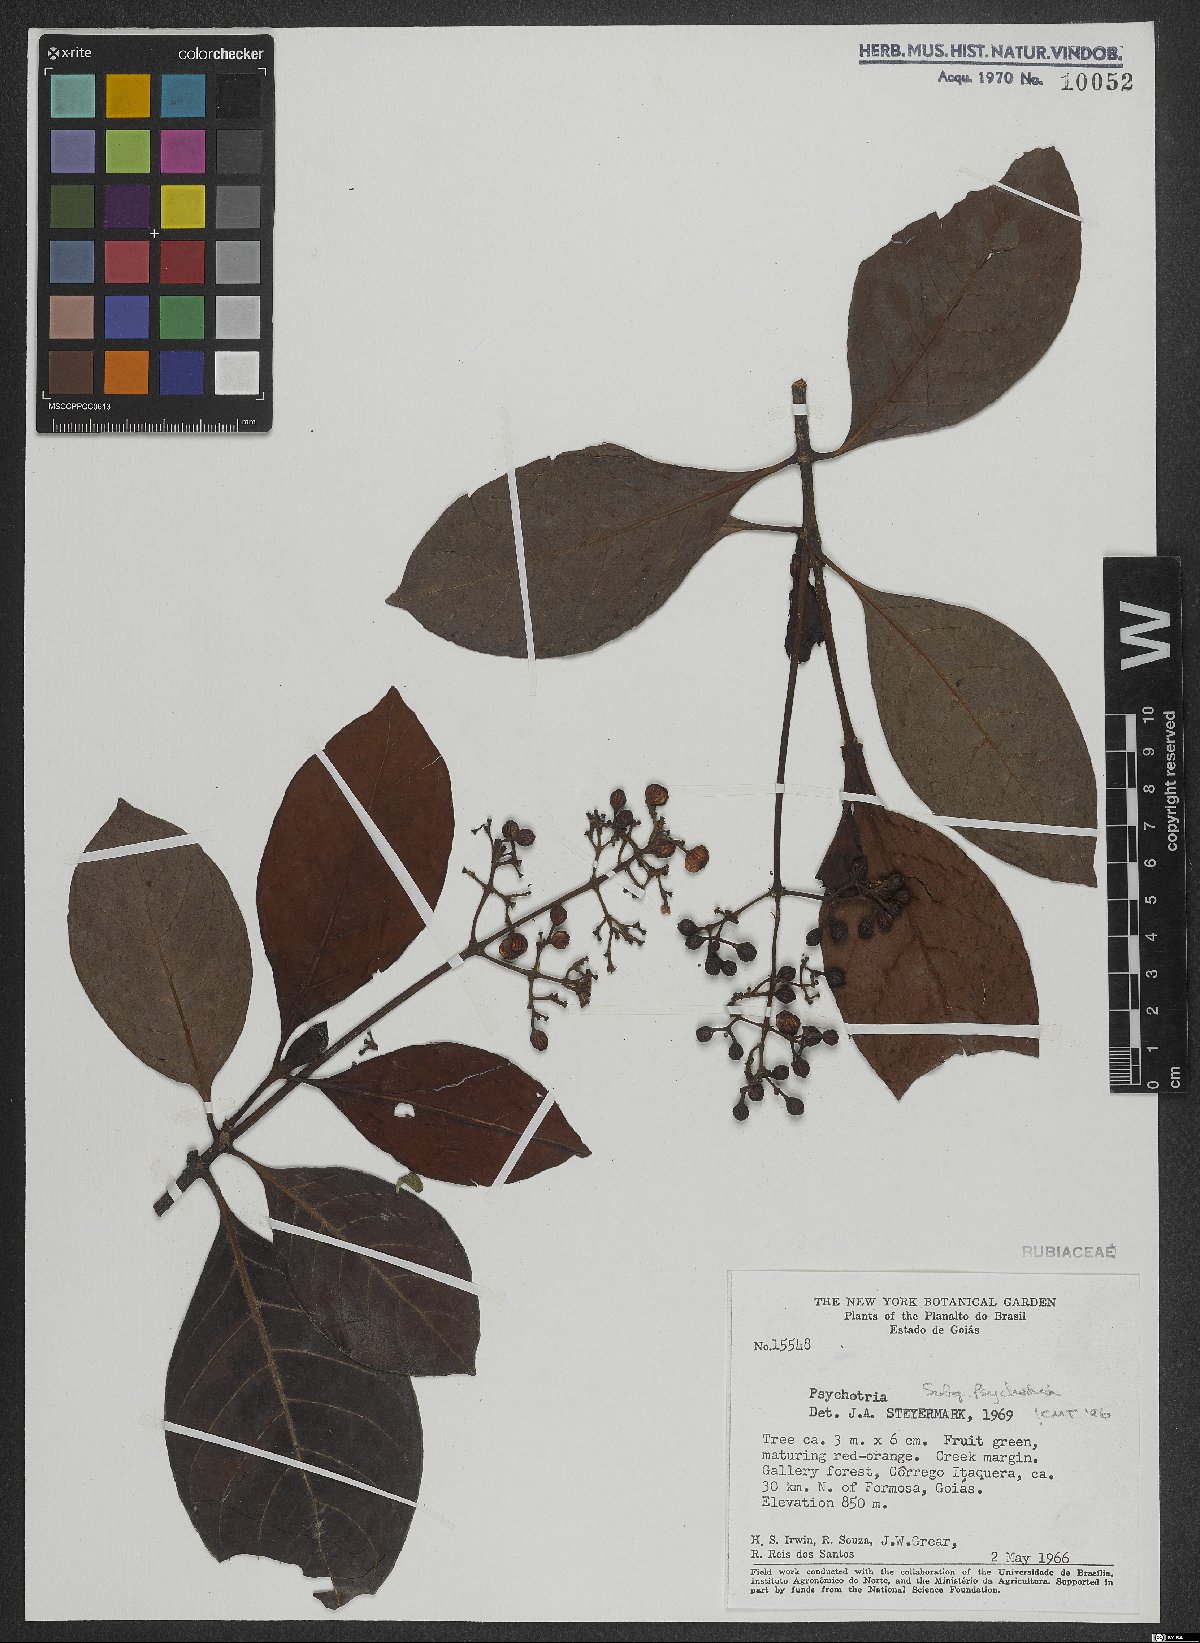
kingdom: Plantae
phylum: Tracheophyta
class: Magnoliopsida
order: Gentianales
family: Rubiaceae
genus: Psychotria
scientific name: Psychotria
